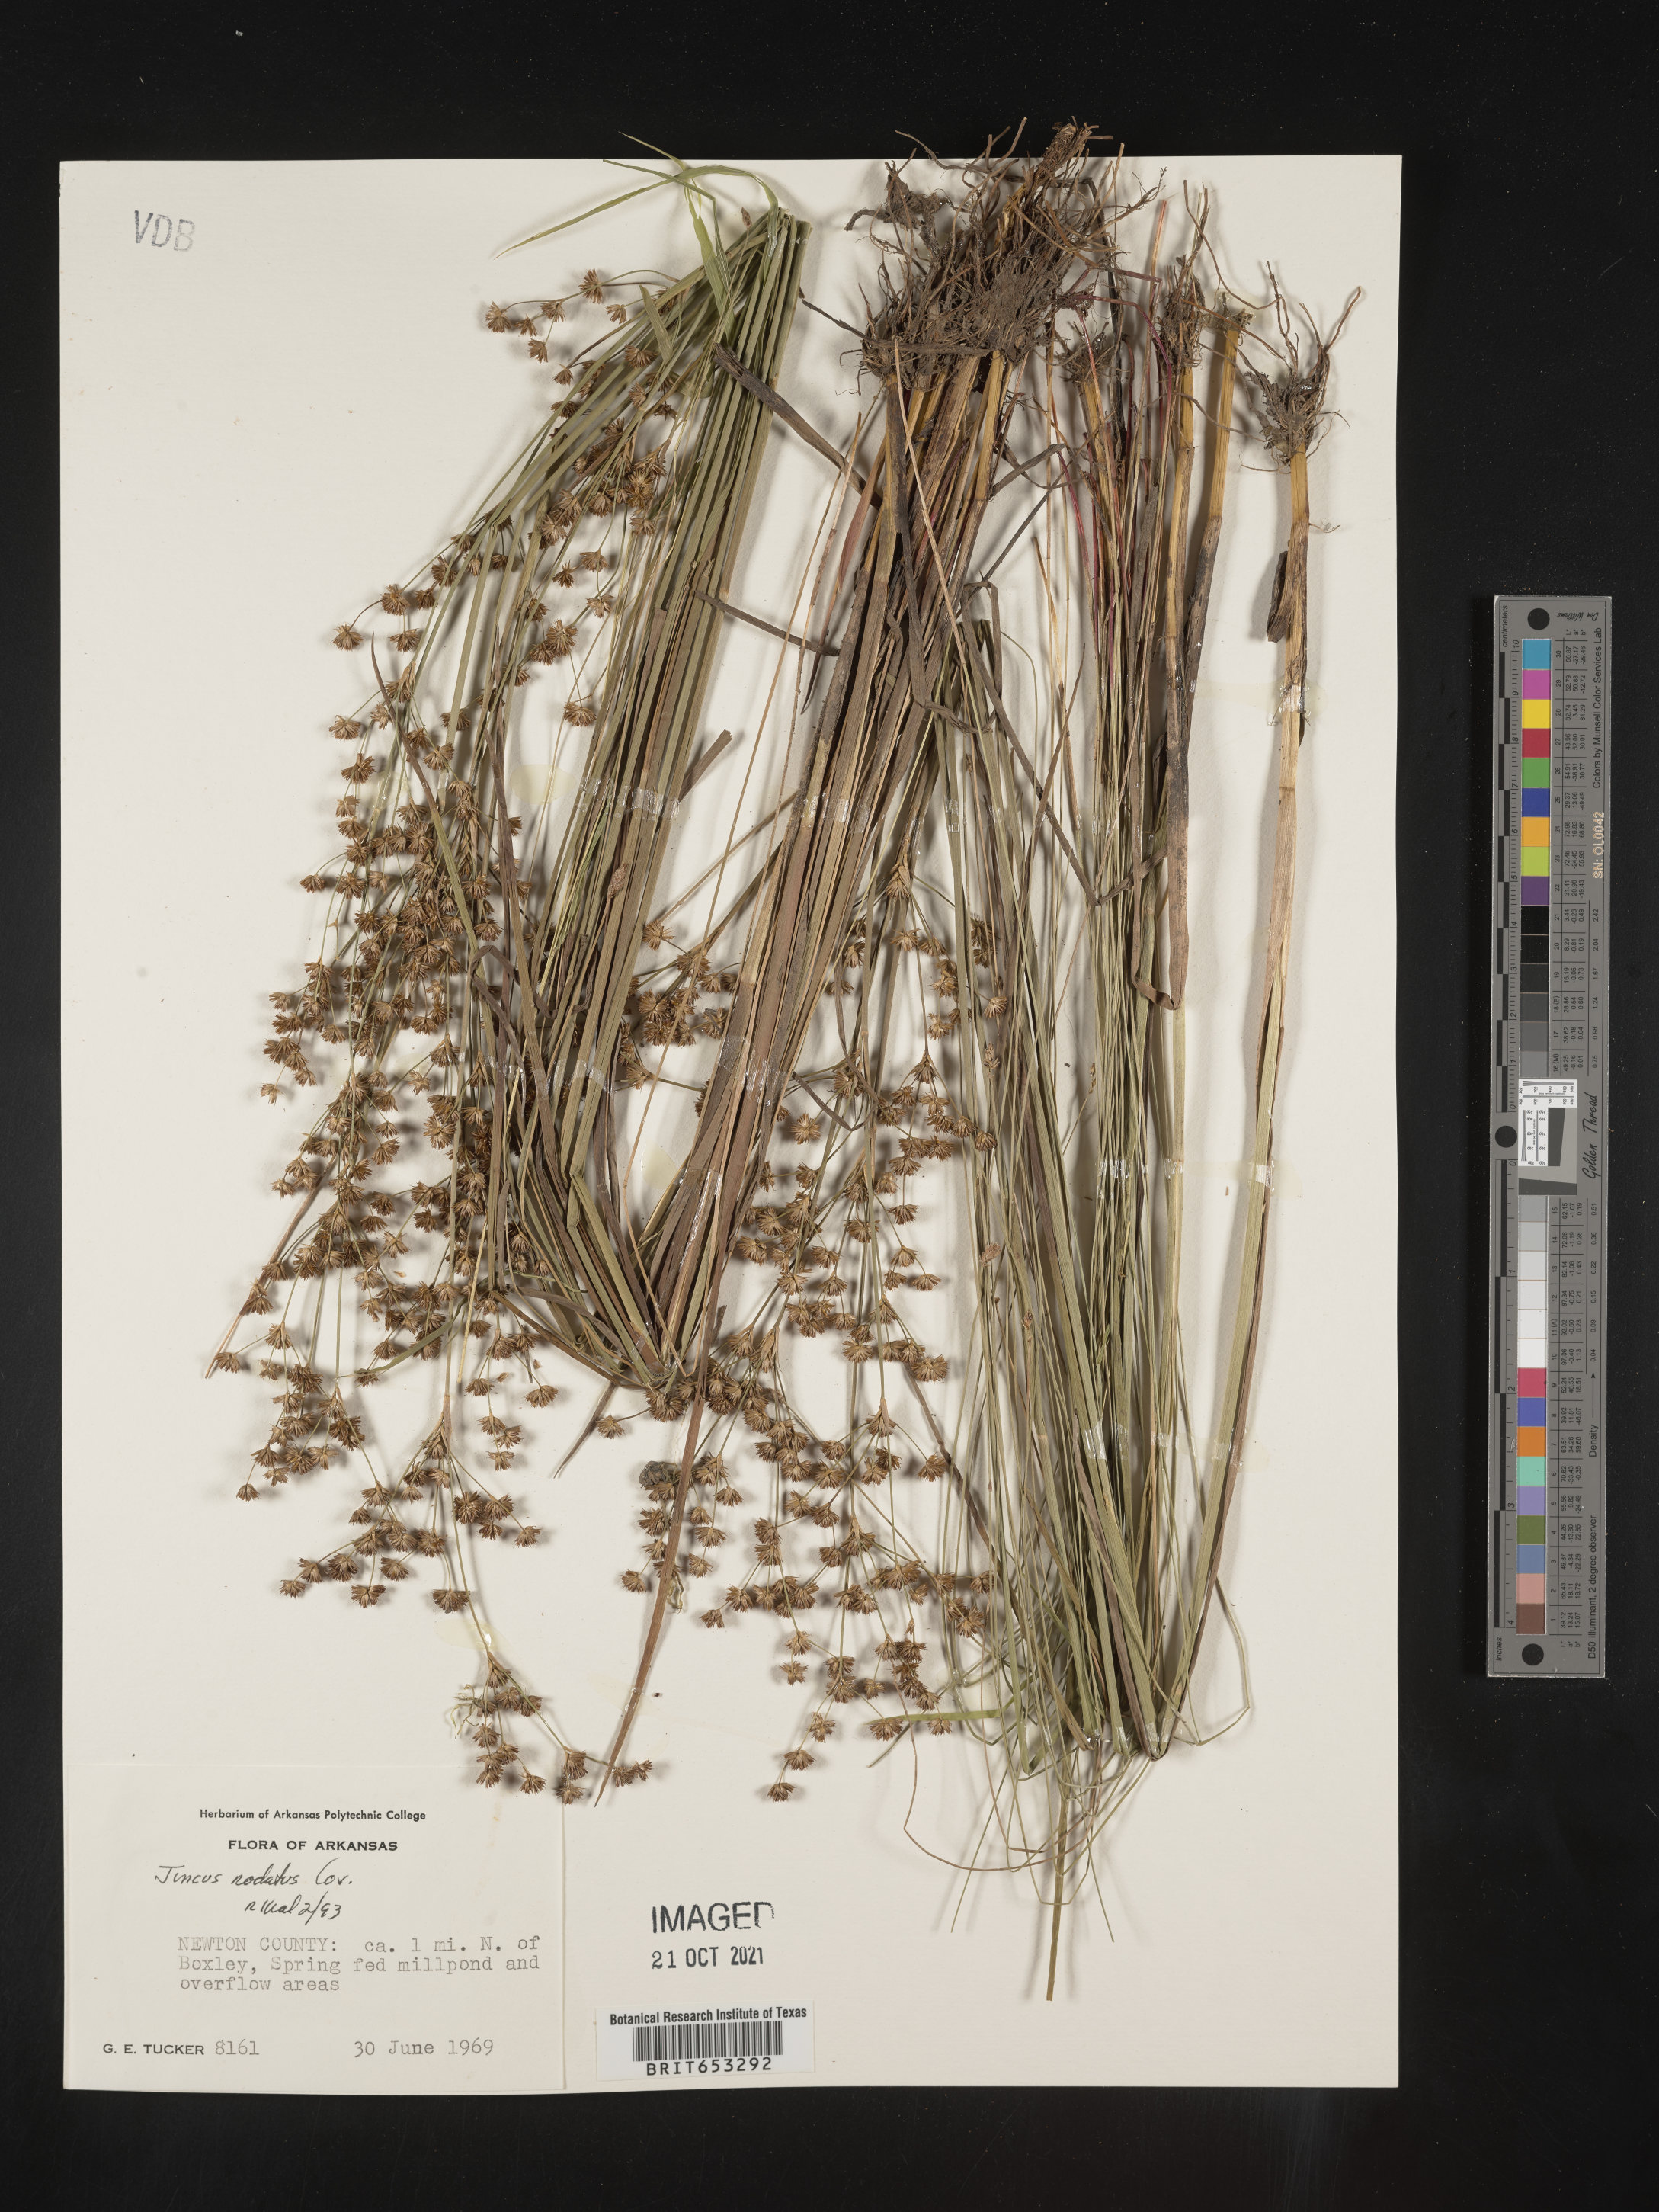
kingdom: Plantae
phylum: Tracheophyta
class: Liliopsida
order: Poales
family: Juncaceae
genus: Juncus
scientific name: Juncus nodatus
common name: Stout rush
